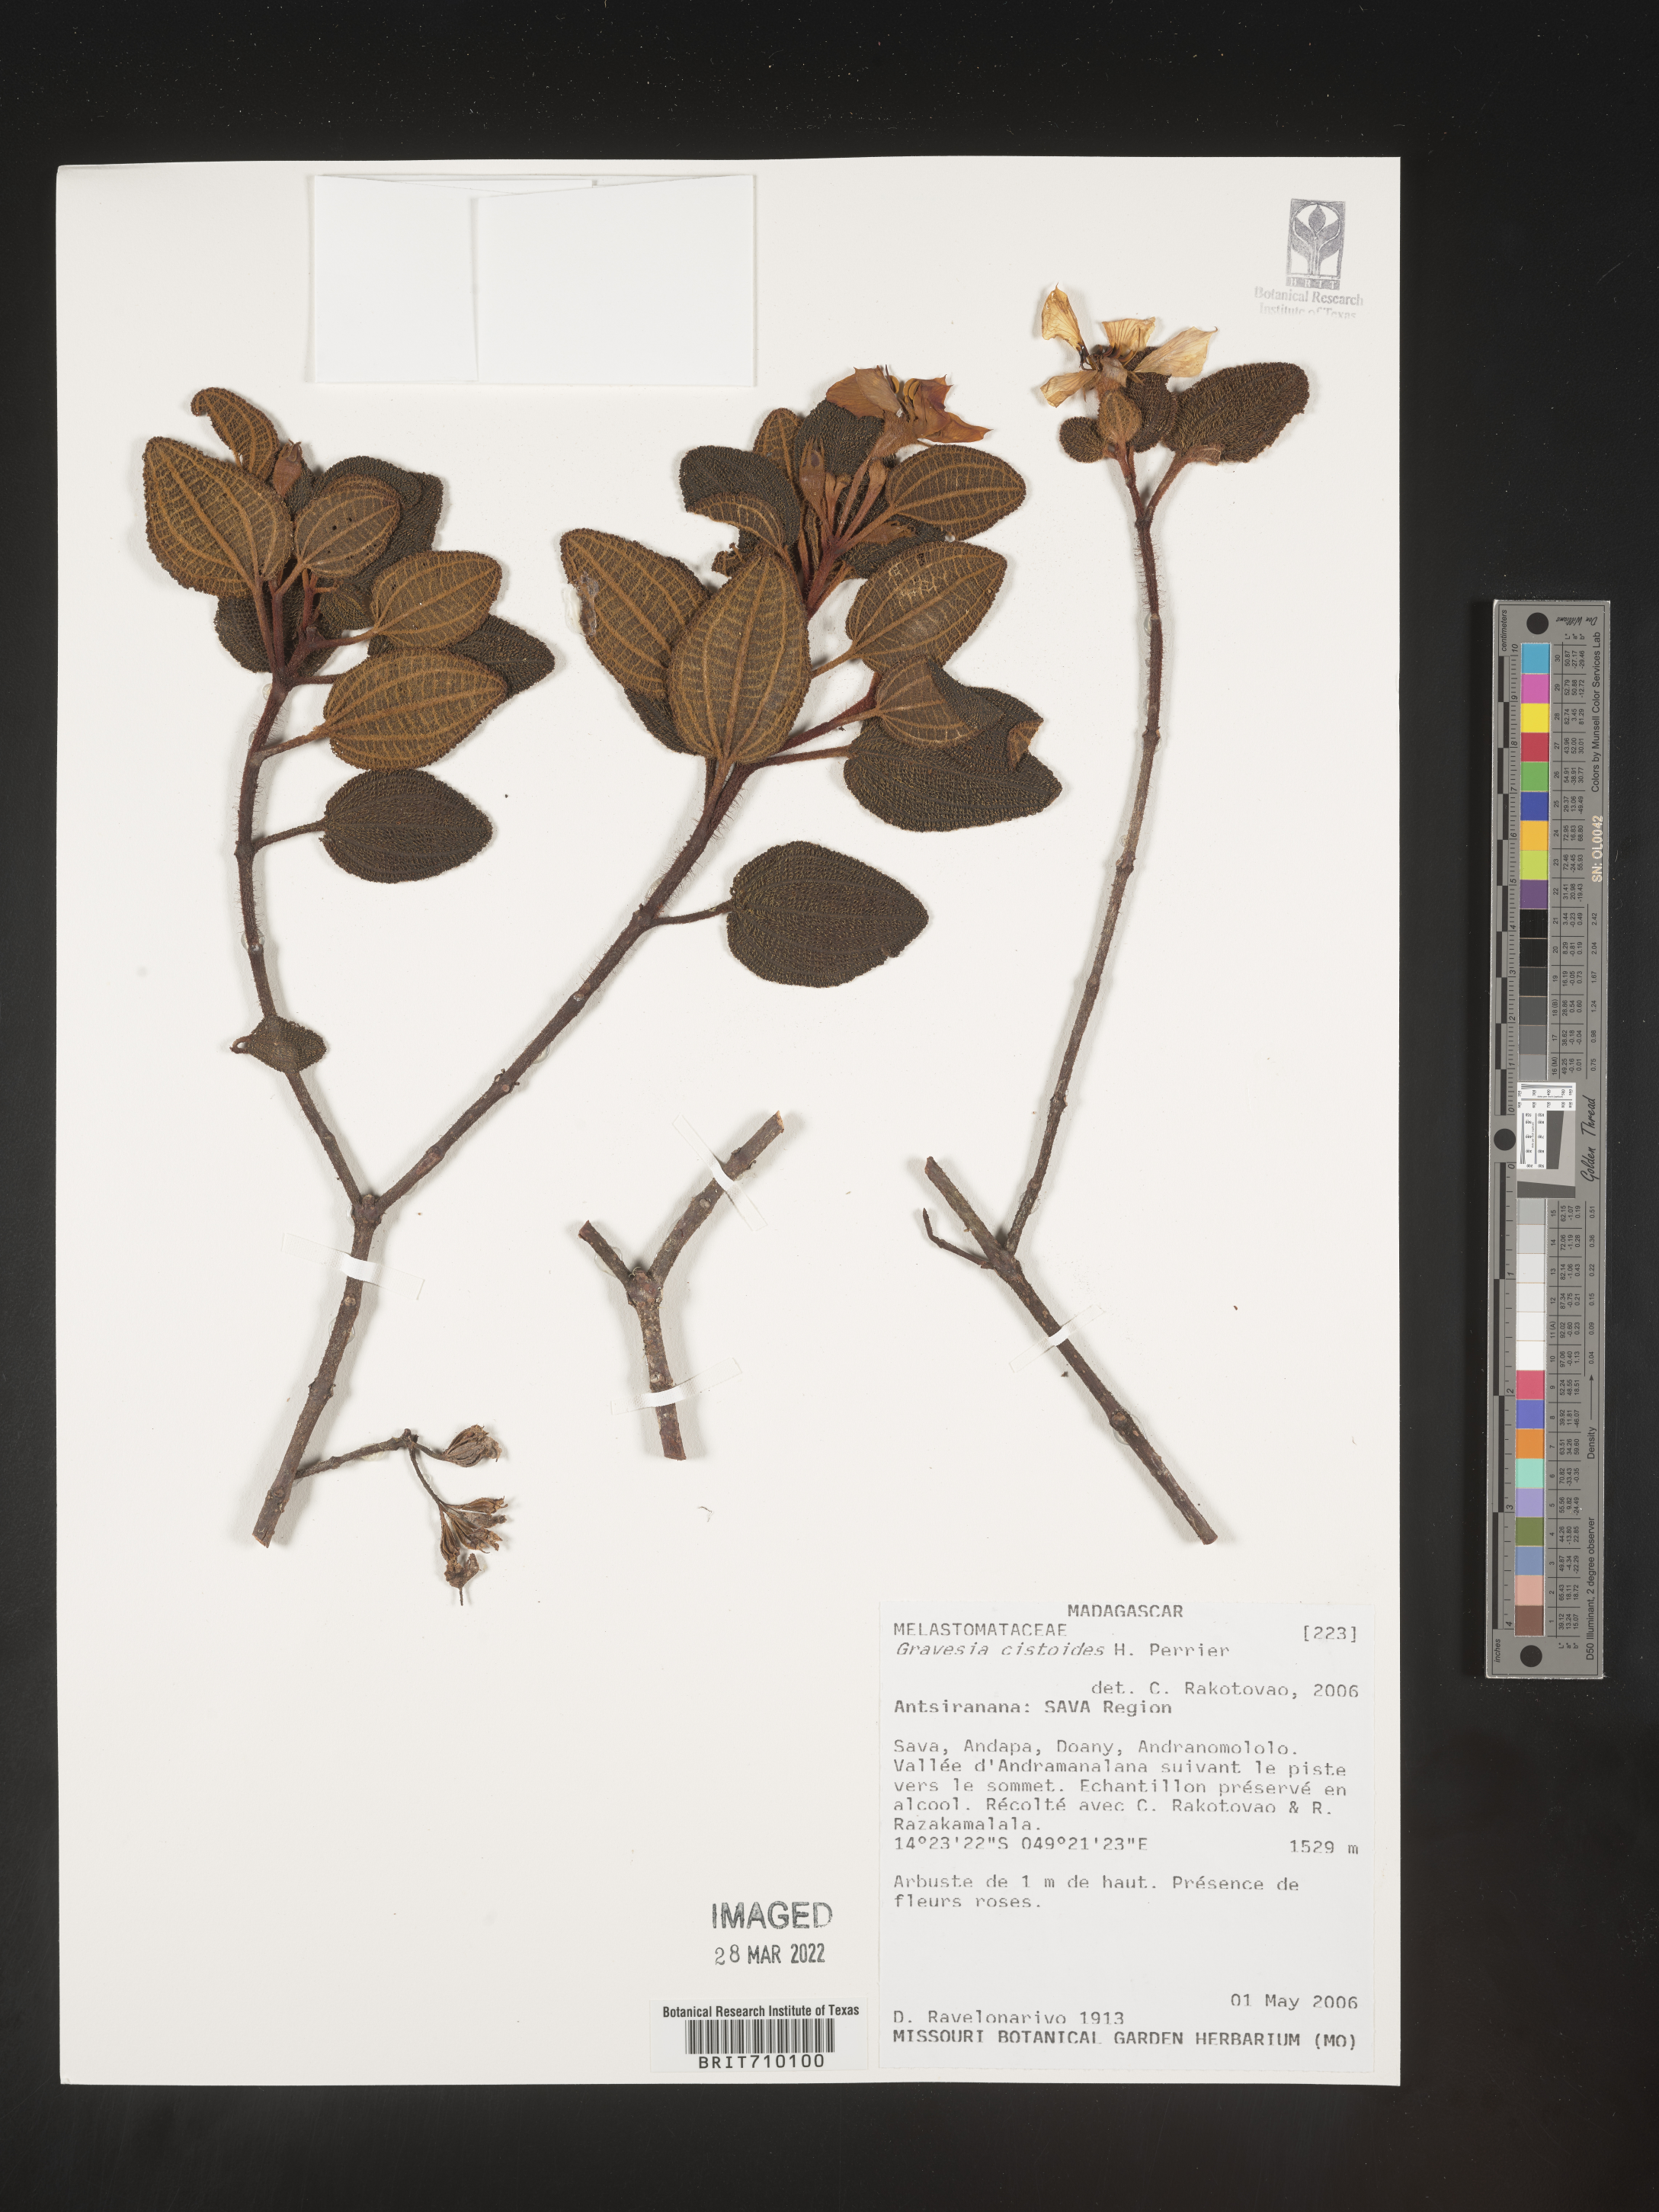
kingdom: Plantae
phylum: Tracheophyta
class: Magnoliopsida
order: Myrtales
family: Melastomataceae
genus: Gravesia
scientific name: Gravesia
